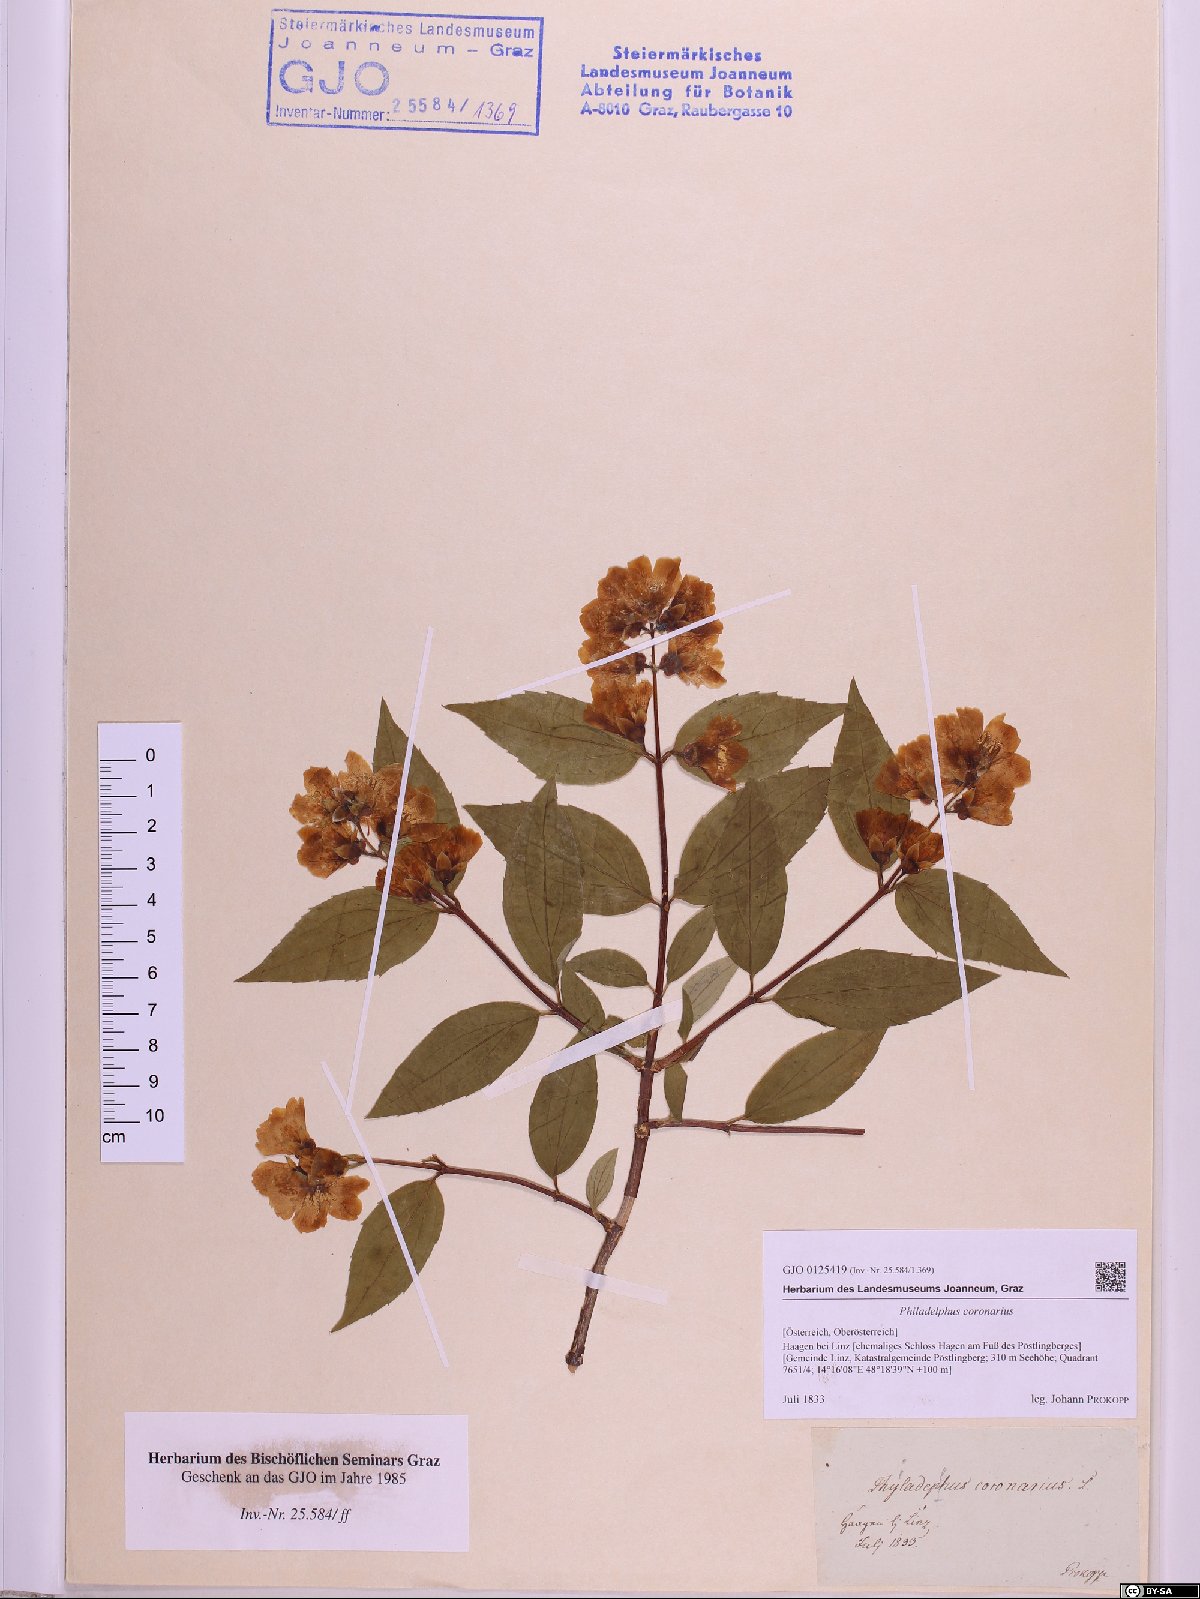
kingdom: Plantae
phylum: Tracheophyta
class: Magnoliopsida
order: Cornales
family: Hydrangeaceae
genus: Philadelphus
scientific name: Philadelphus coronarius
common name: Mock orange
